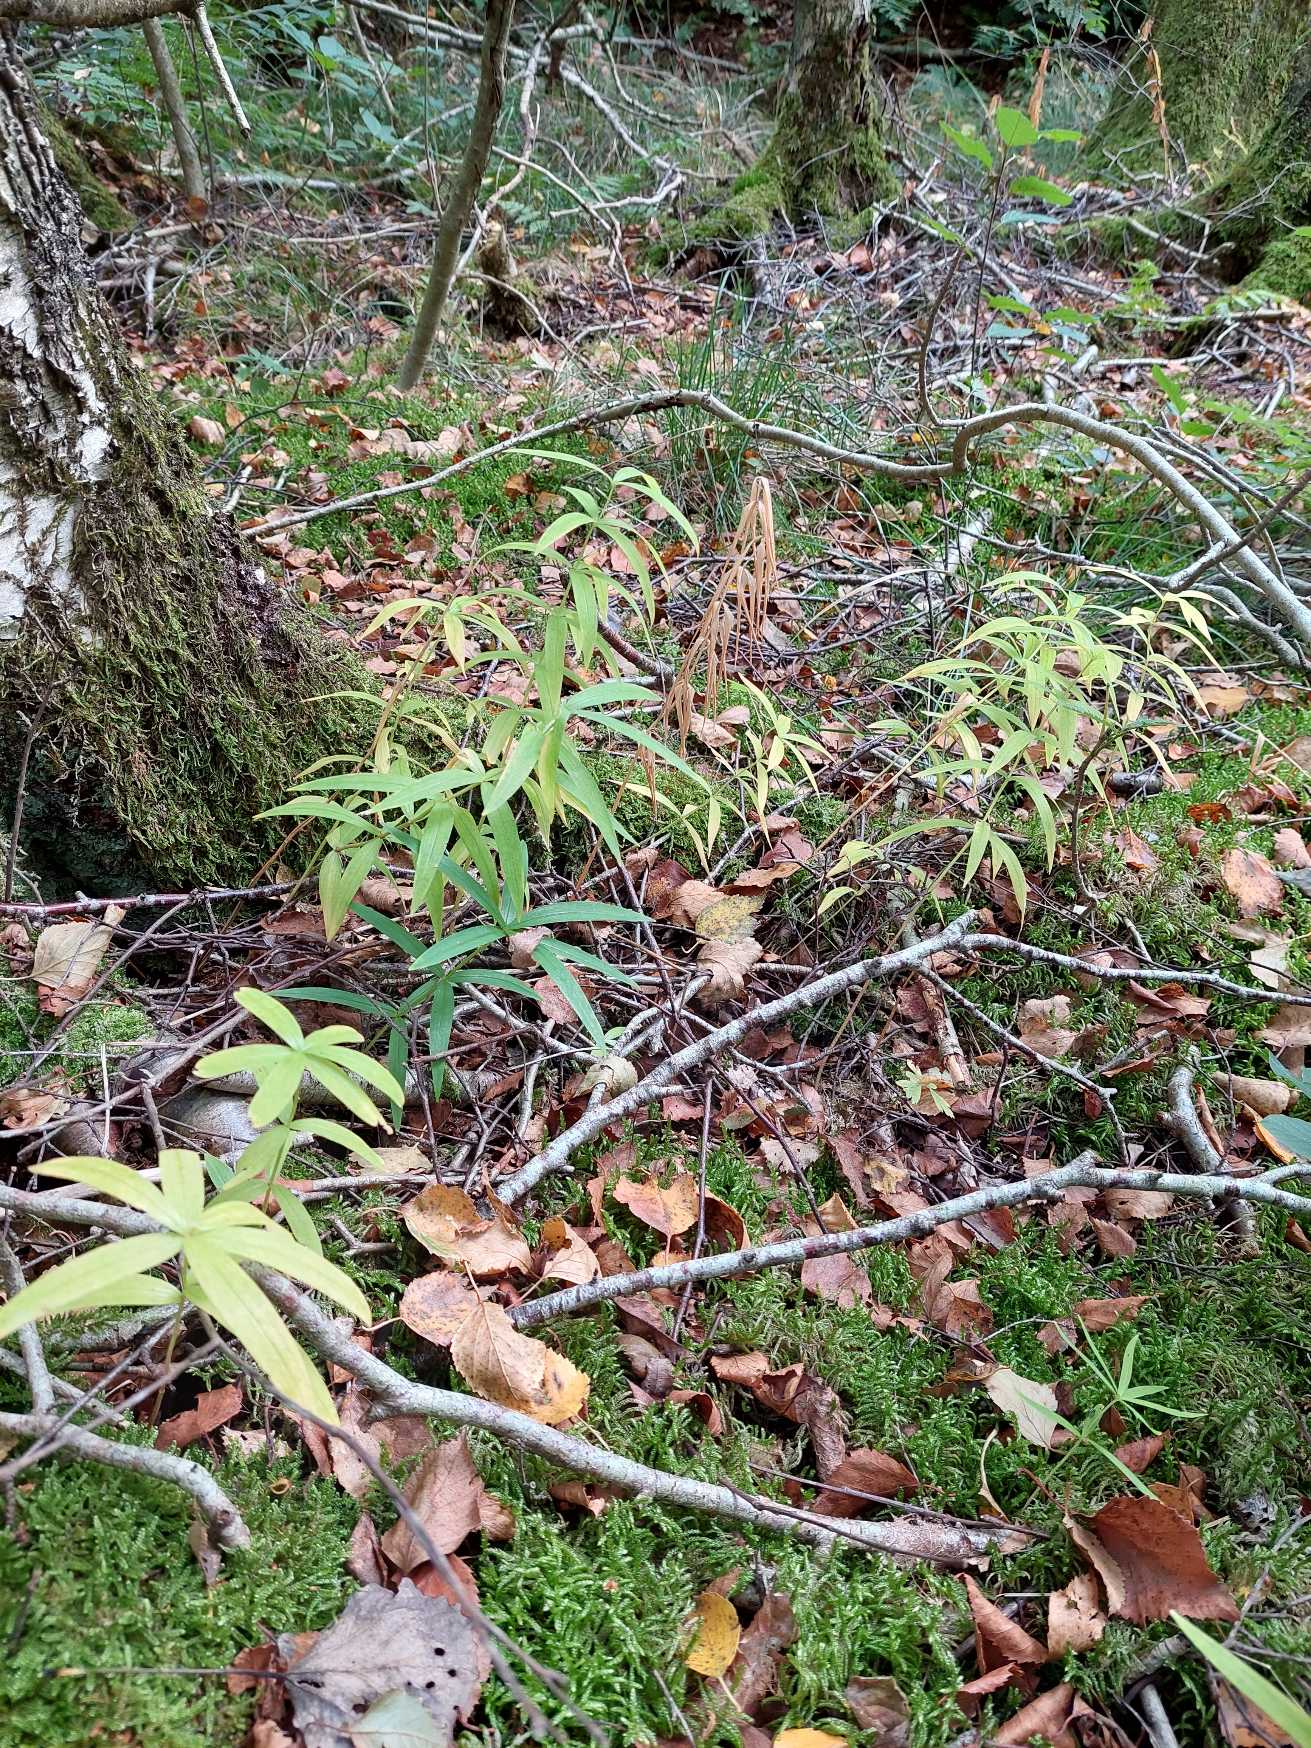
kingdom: Plantae
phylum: Tracheophyta
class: Liliopsida
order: Asparagales
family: Asparagaceae
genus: Polygonatum
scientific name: Polygonatum verticillatum
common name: Krans-konval
